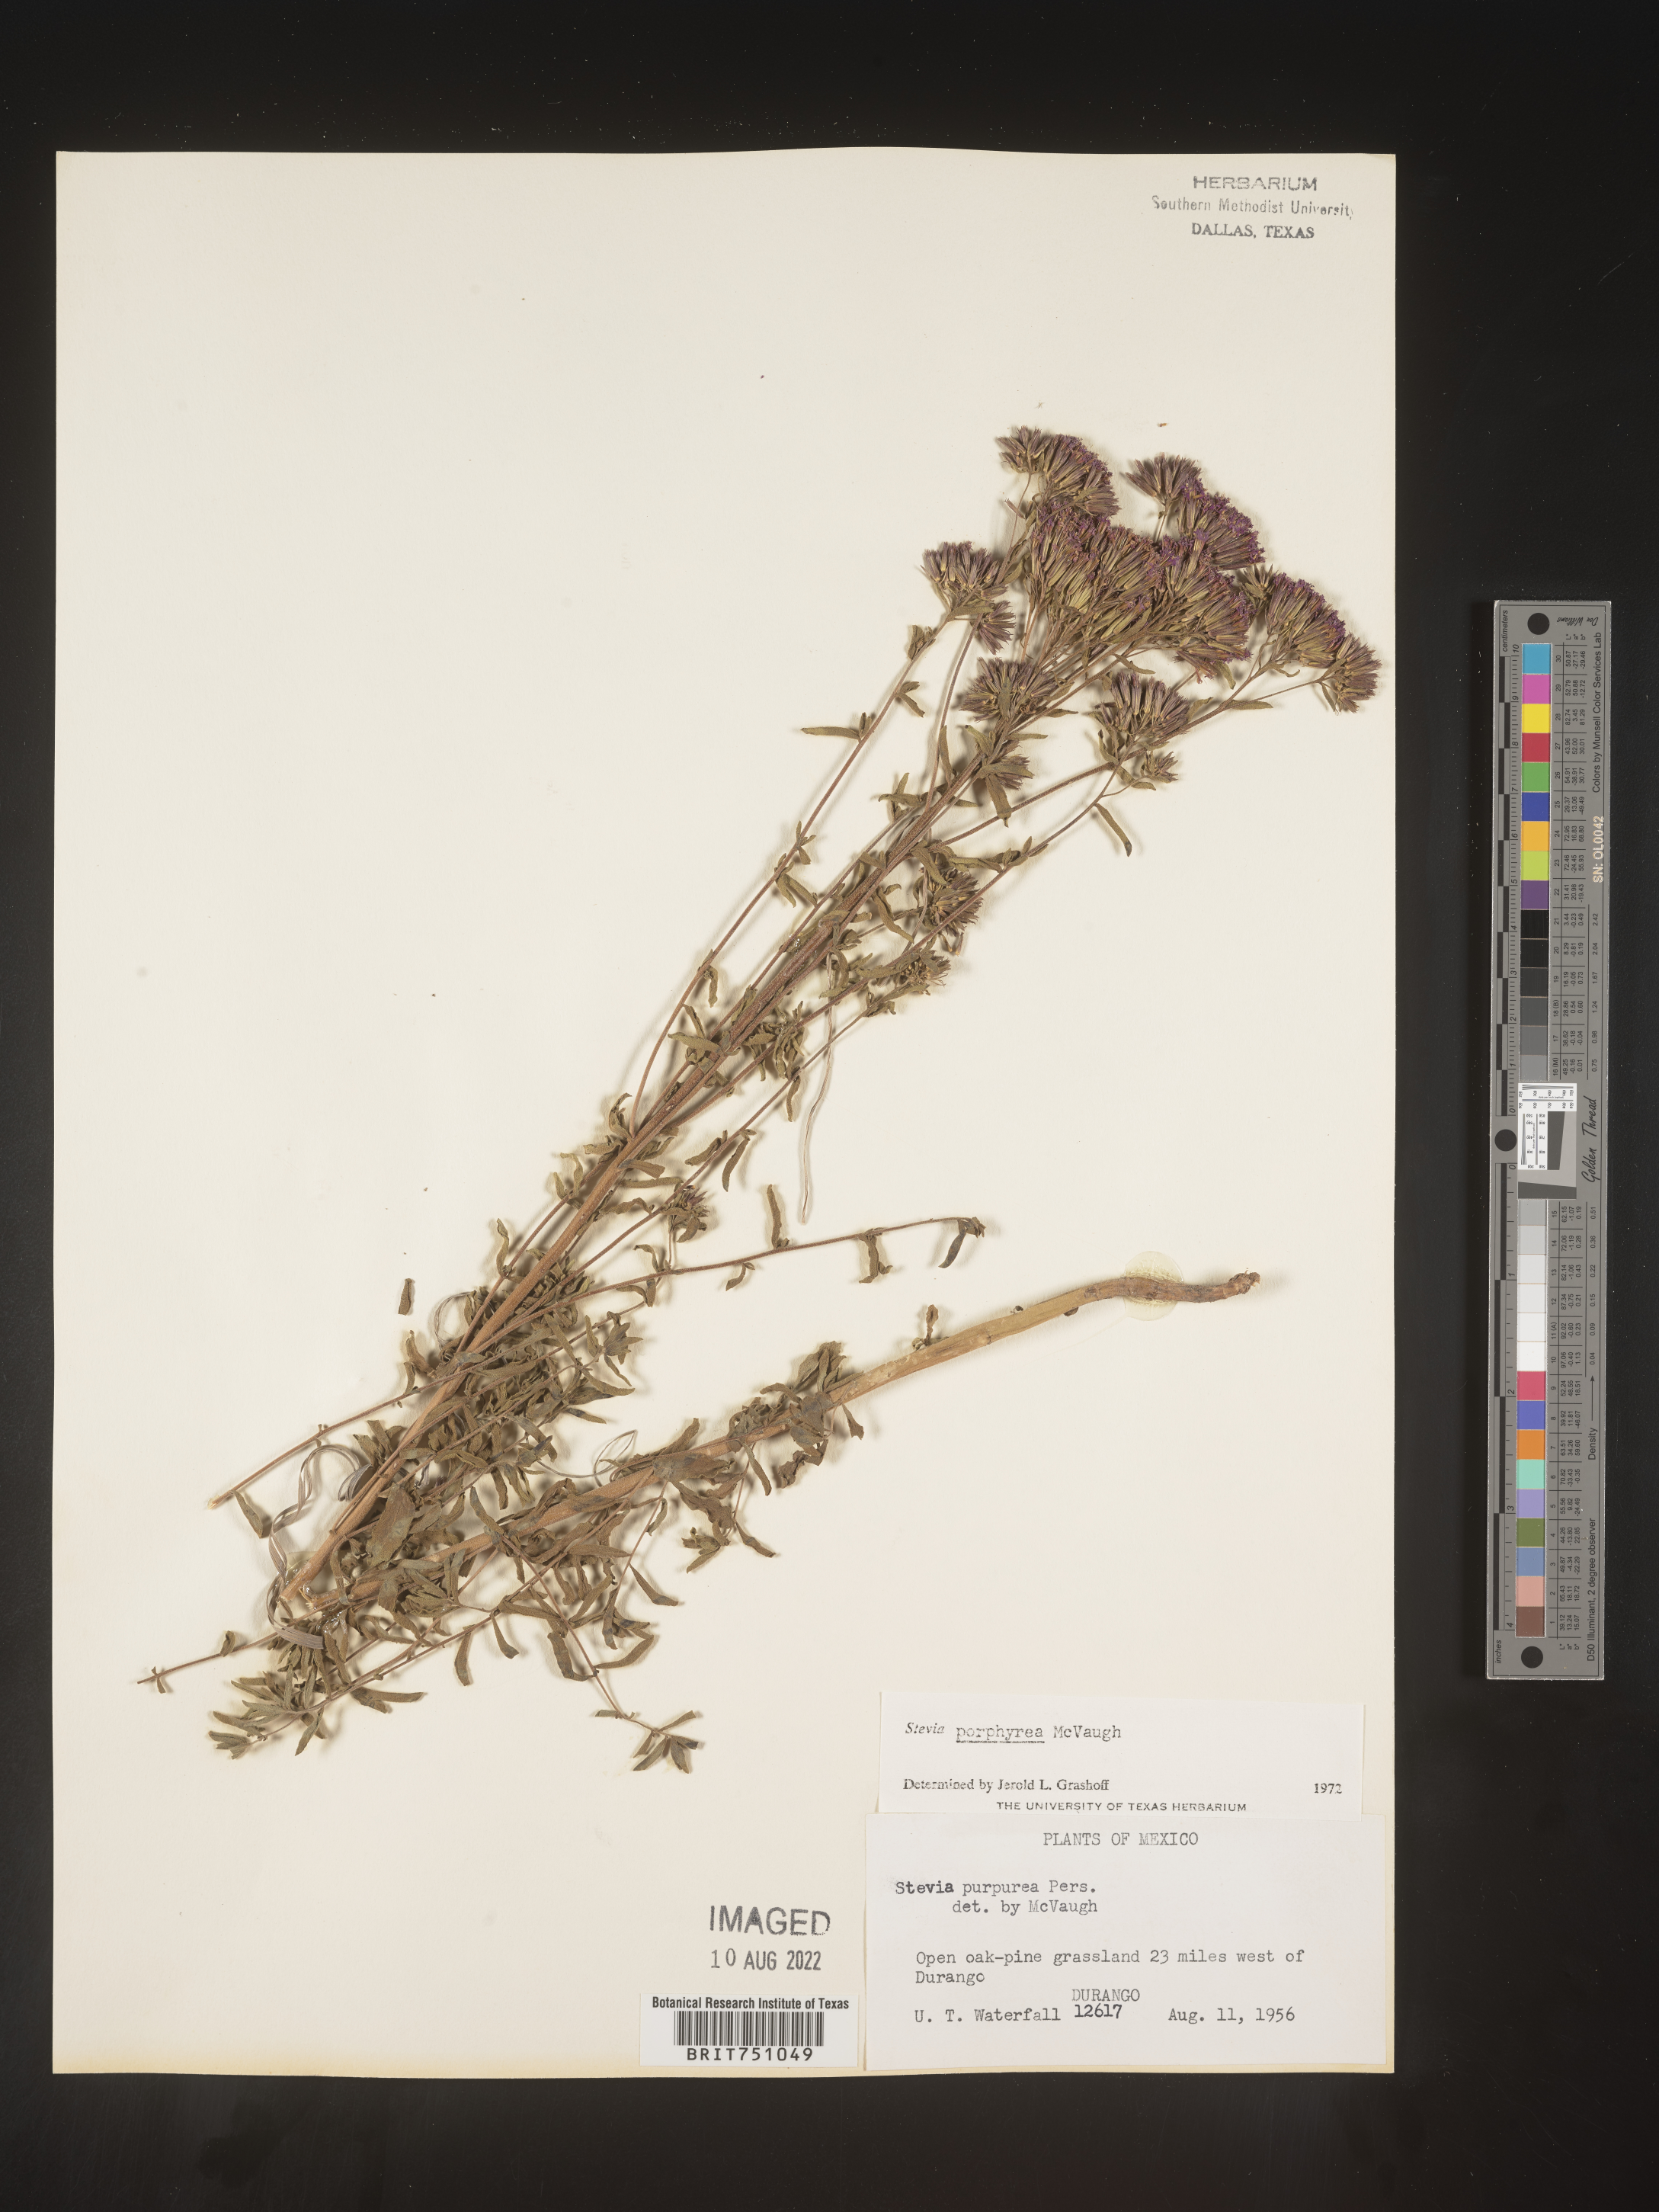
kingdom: Plantae
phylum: Tracheophyta
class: Magnoliopsida
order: Asterales
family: Asteraceae
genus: Stevia
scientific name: Stevia porphyrea
